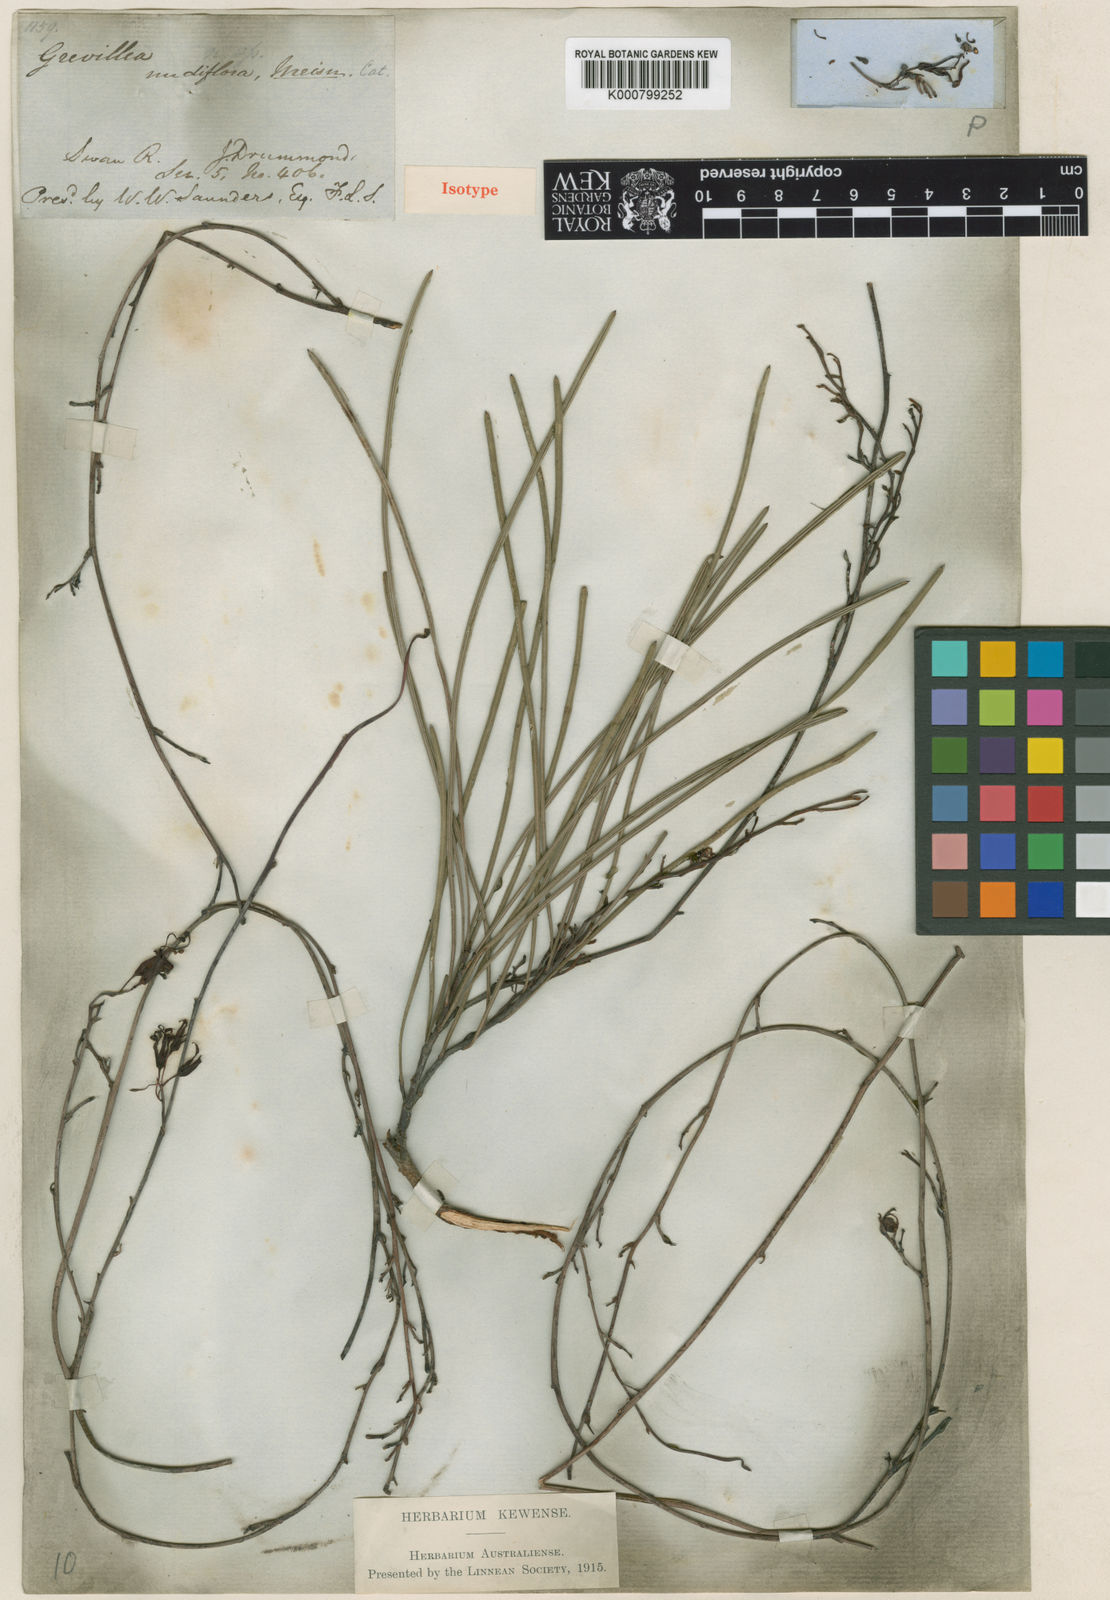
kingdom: Plantae
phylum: Tracheophyta
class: Magnoliopsida
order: Proteales
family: Proteaceae
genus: Grevillea
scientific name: Grevillea nudiflora
